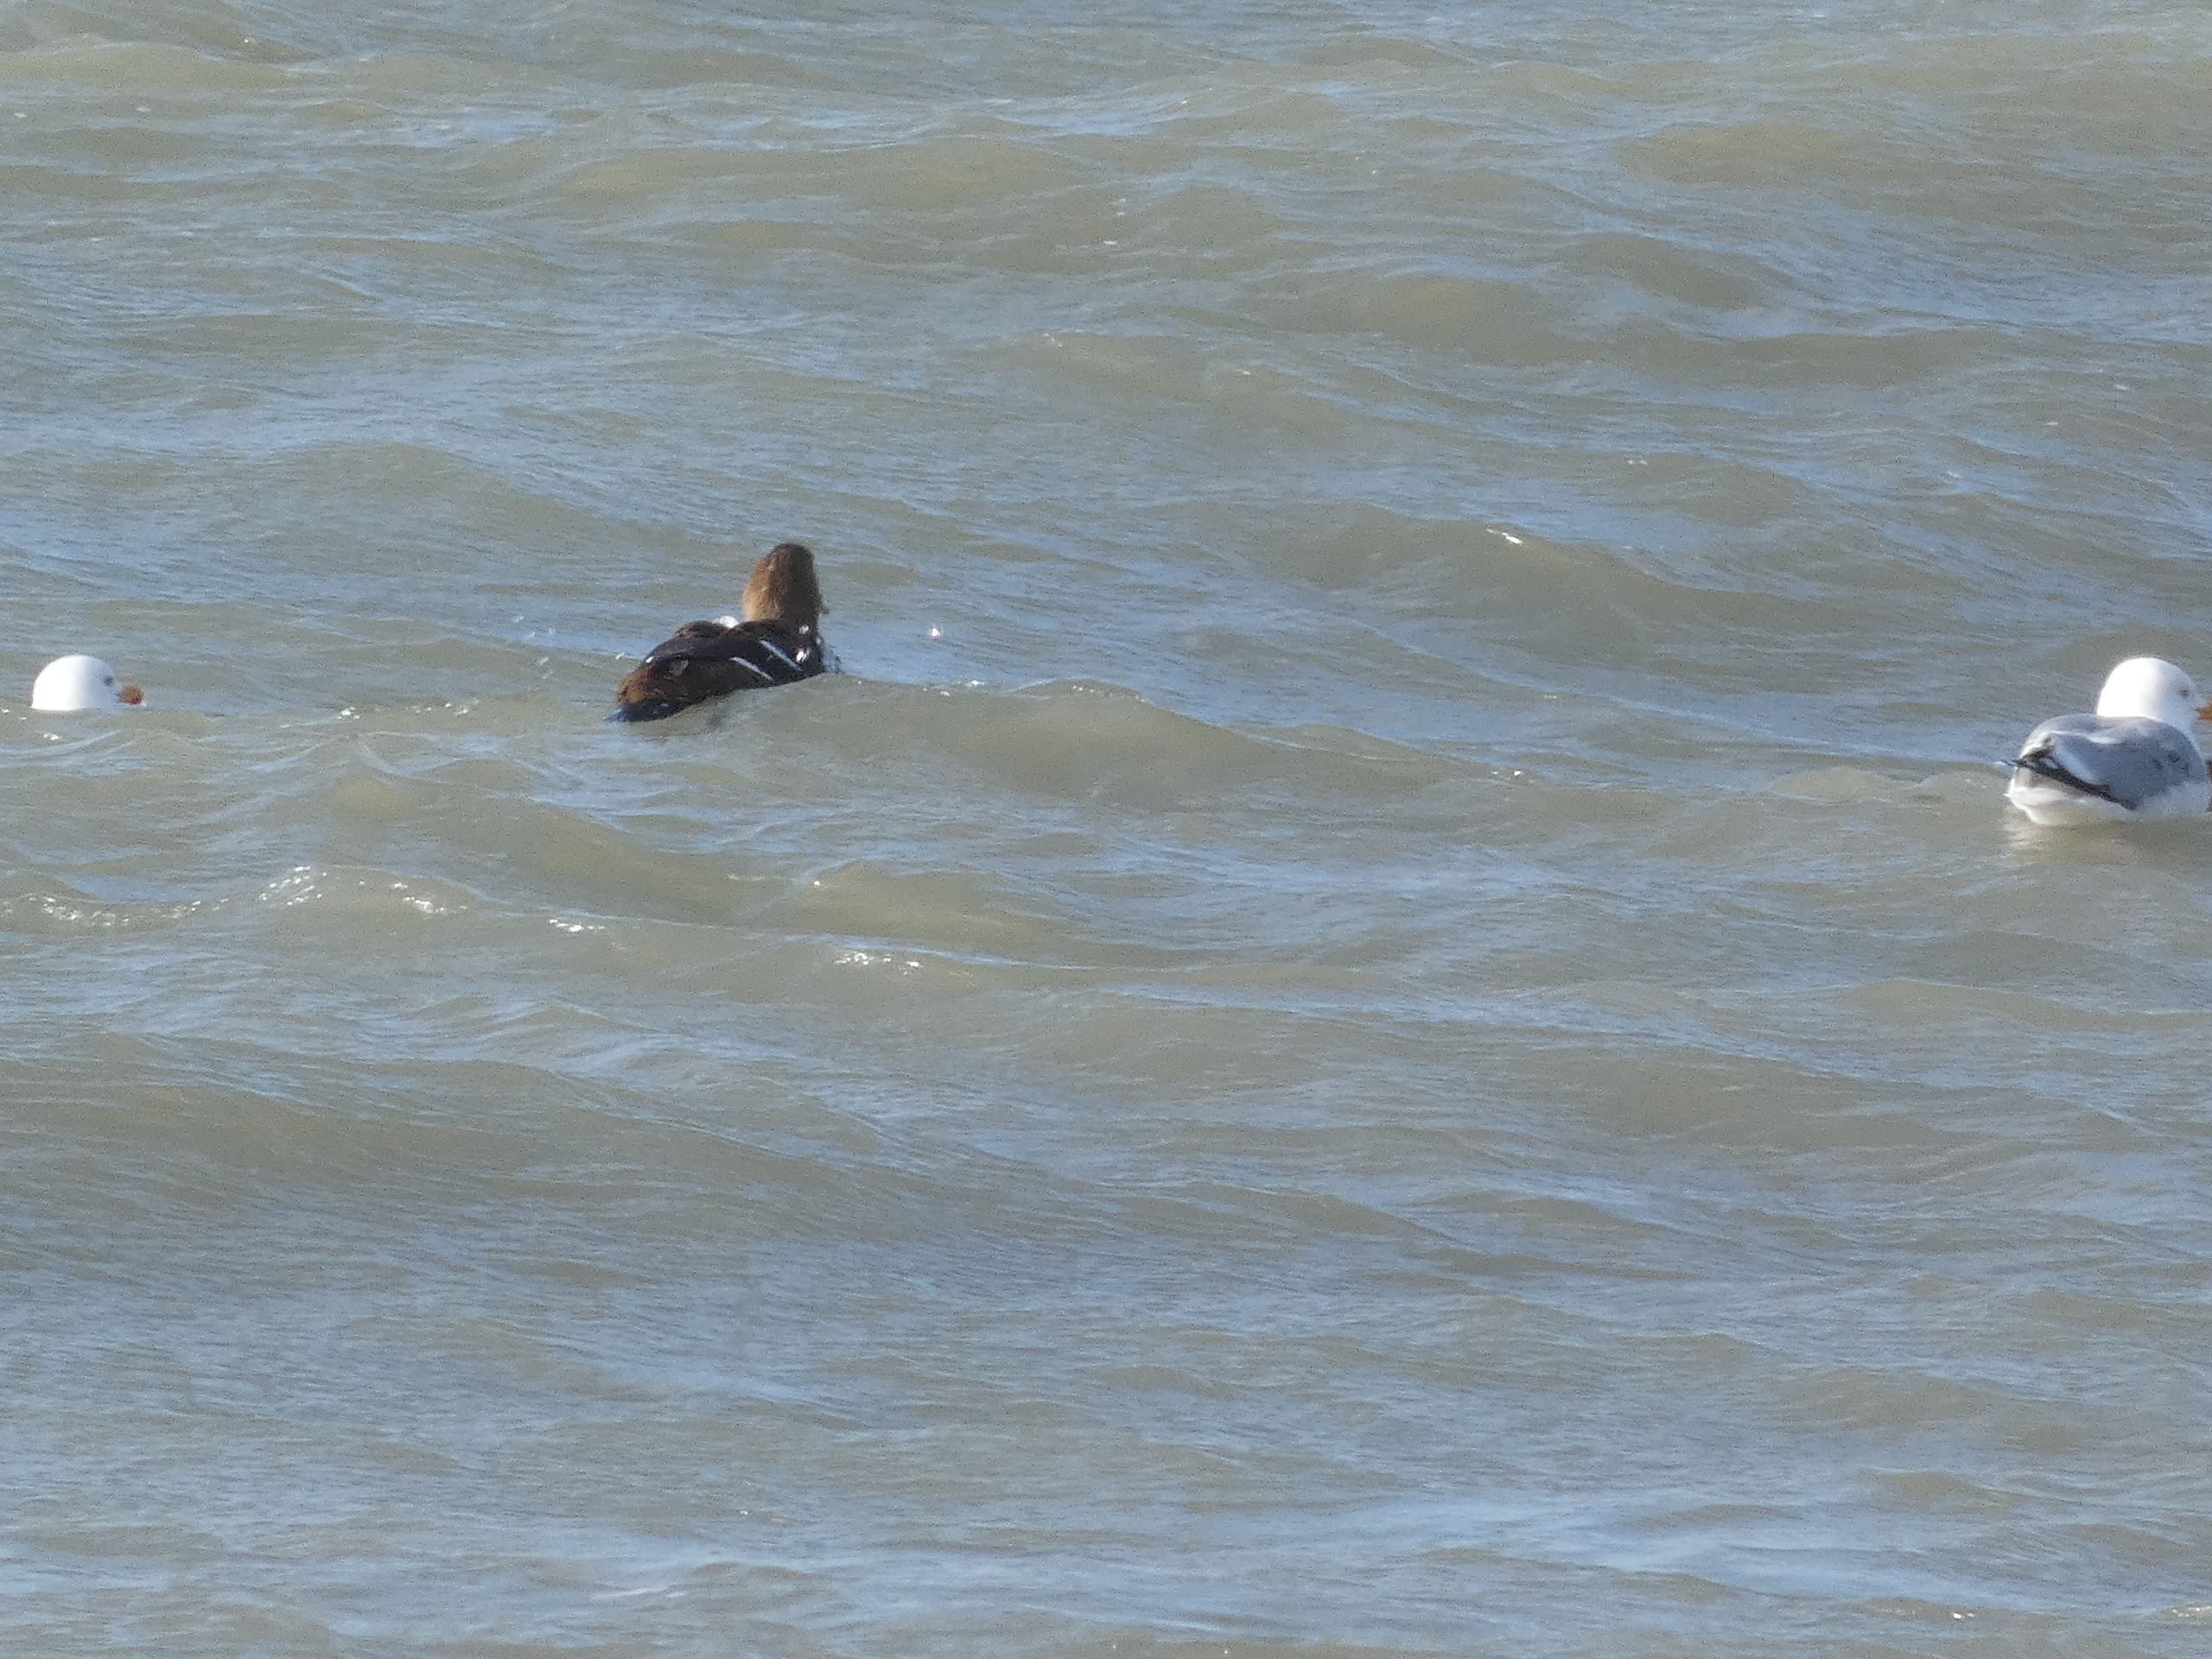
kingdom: Animalia
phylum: Chordata
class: Aves
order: Charadriiformes
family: Laridae
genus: Larus
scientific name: Larus argentatus
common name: Sølvmåge
